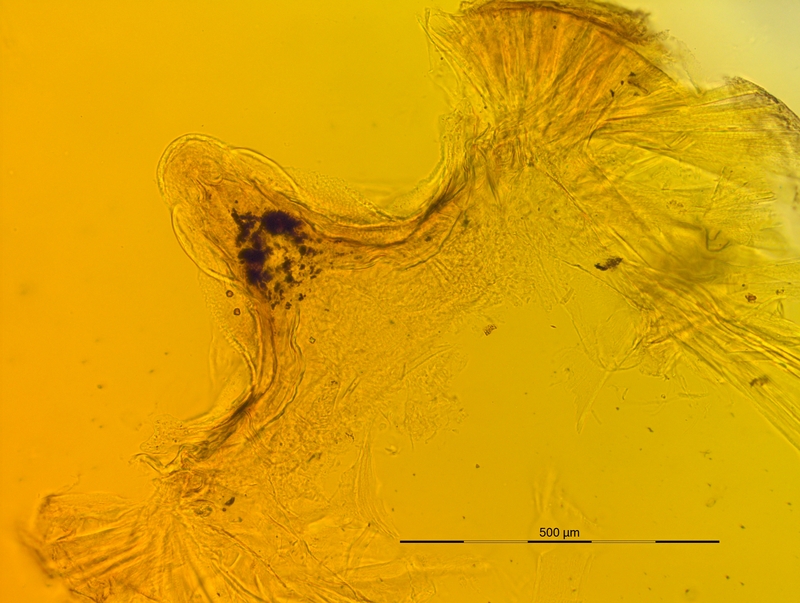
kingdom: Animalia
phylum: Arthropoda
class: Diplopoda
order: Chordeumatida
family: Craspedosomatidae
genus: Pyrgocyphosoma
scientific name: Pyrgocyphosoma dentatum
